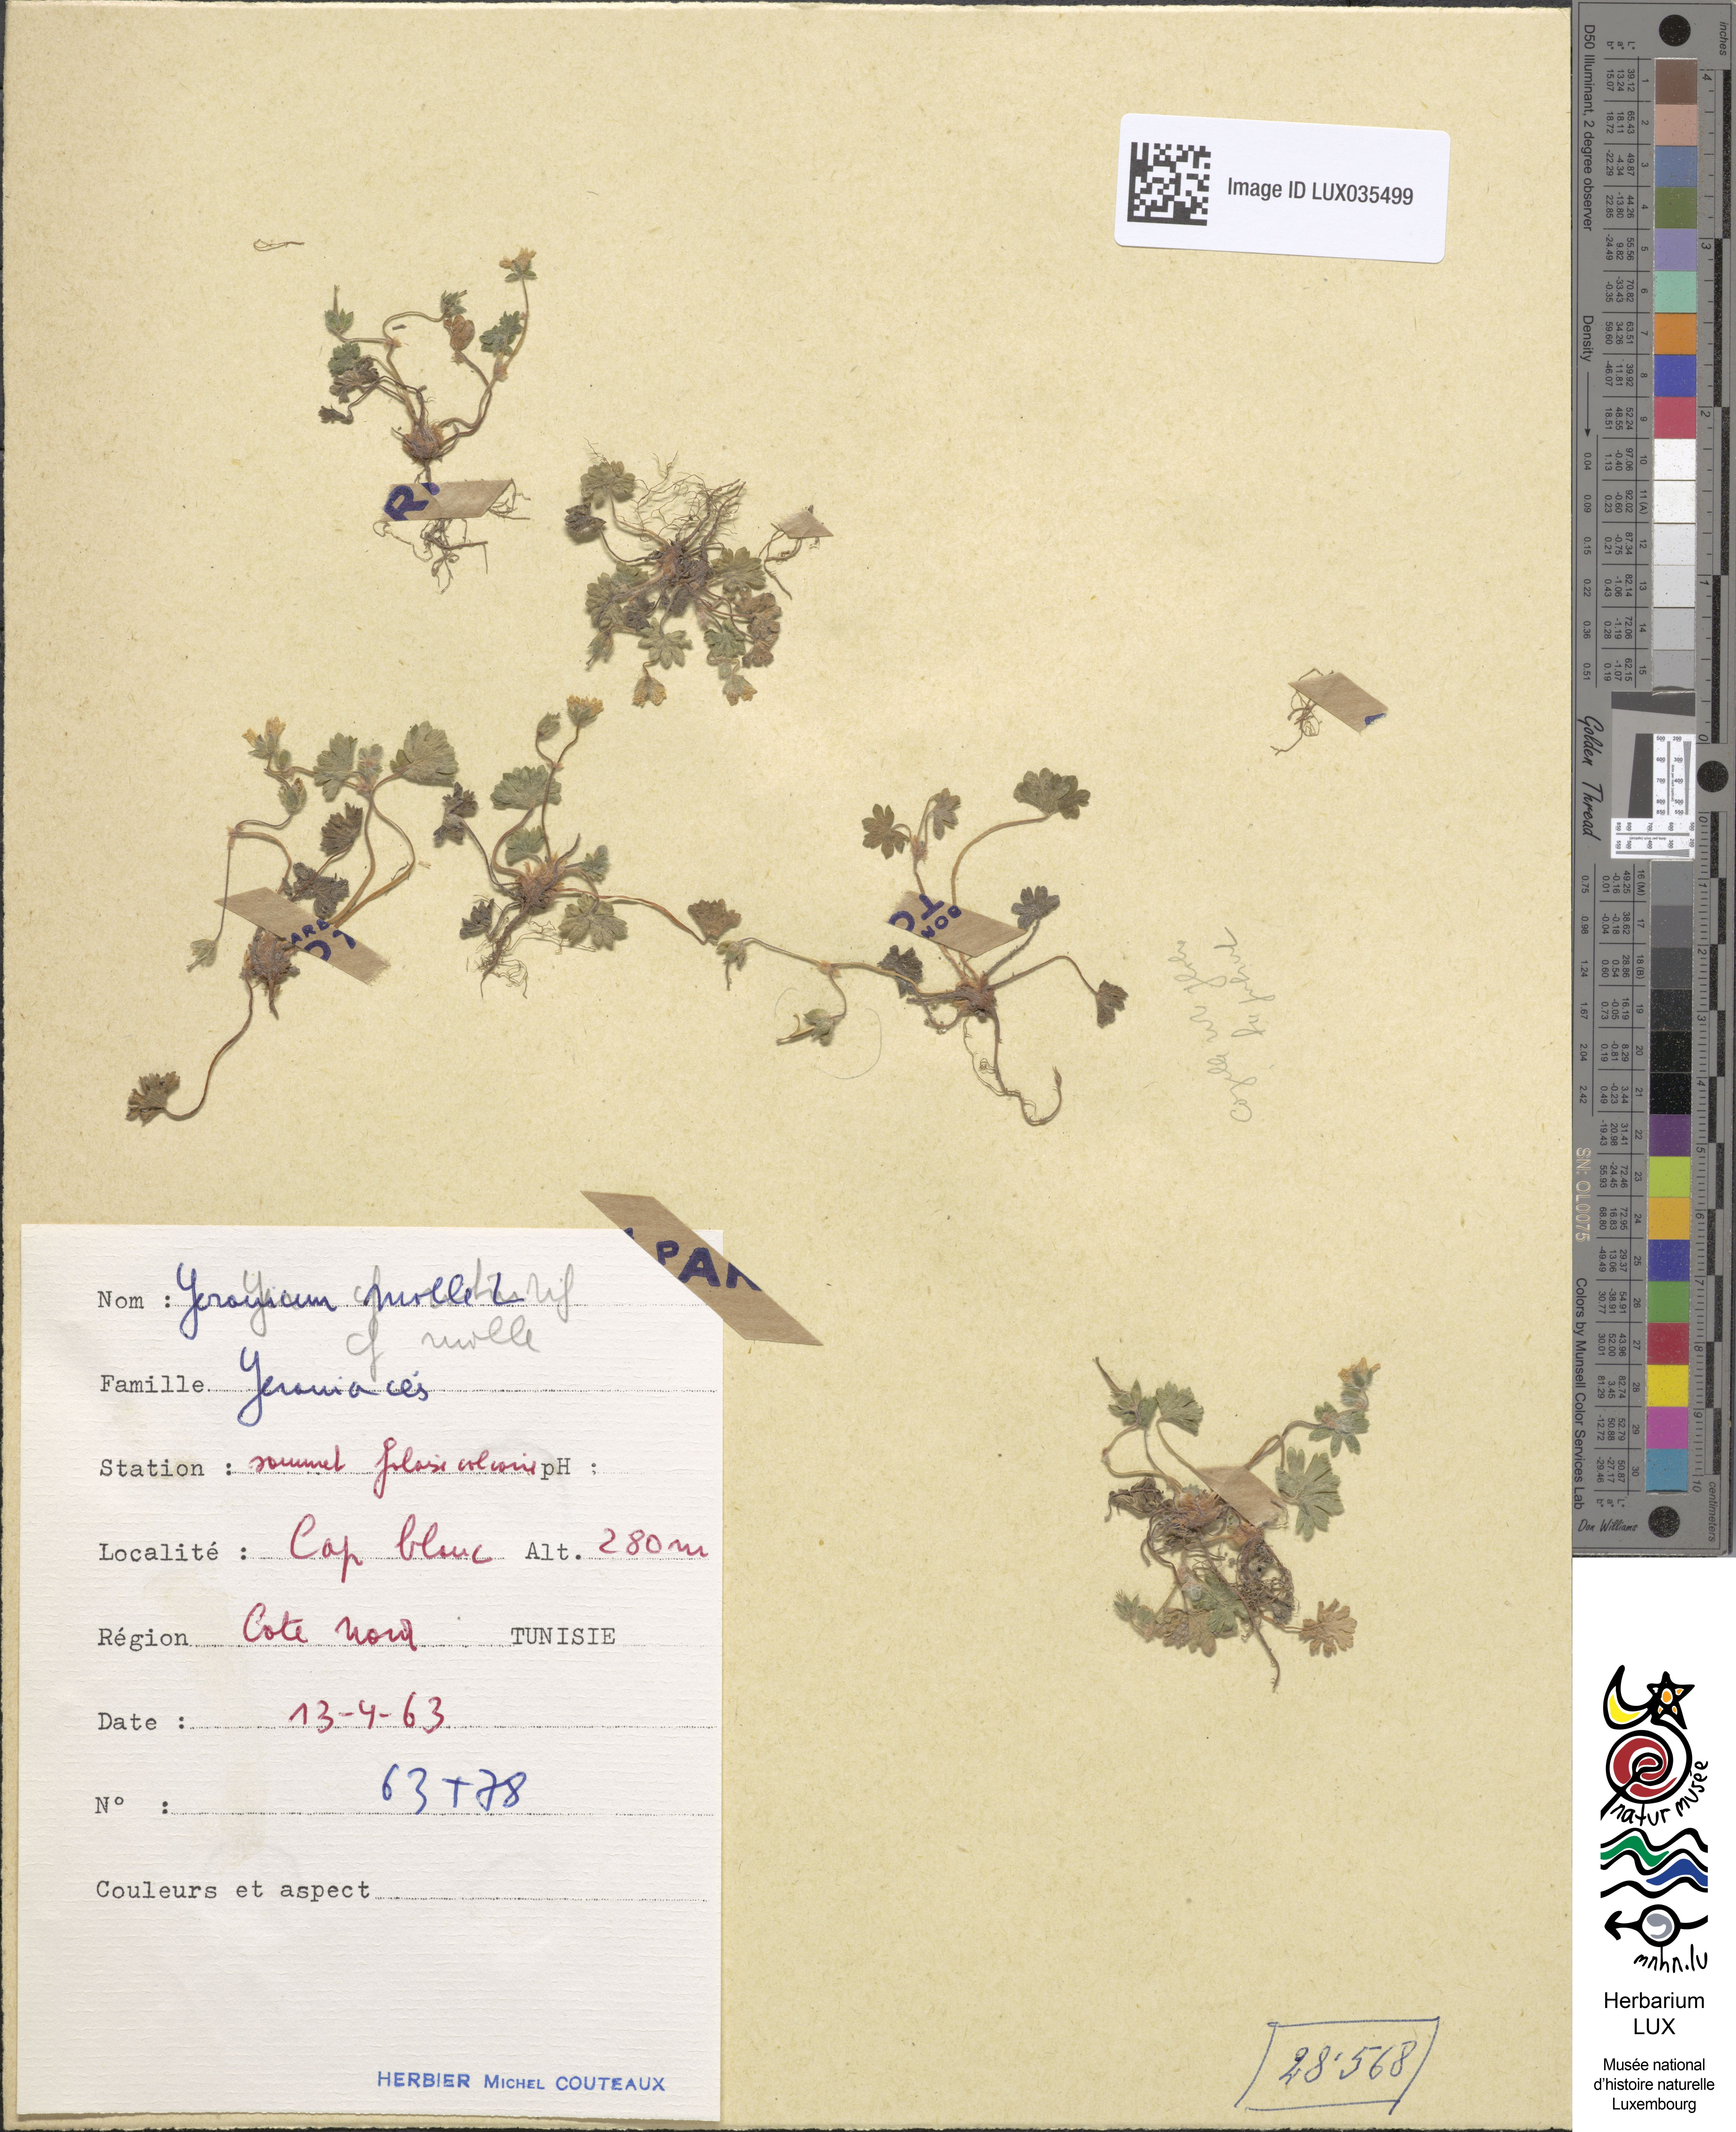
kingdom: Plantae
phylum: Tracheophyta
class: Magnoliopsida
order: Geraniales
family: Geraniaceae
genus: Geranium
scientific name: Geranium molle
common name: Dove's-foot crane's-bill
